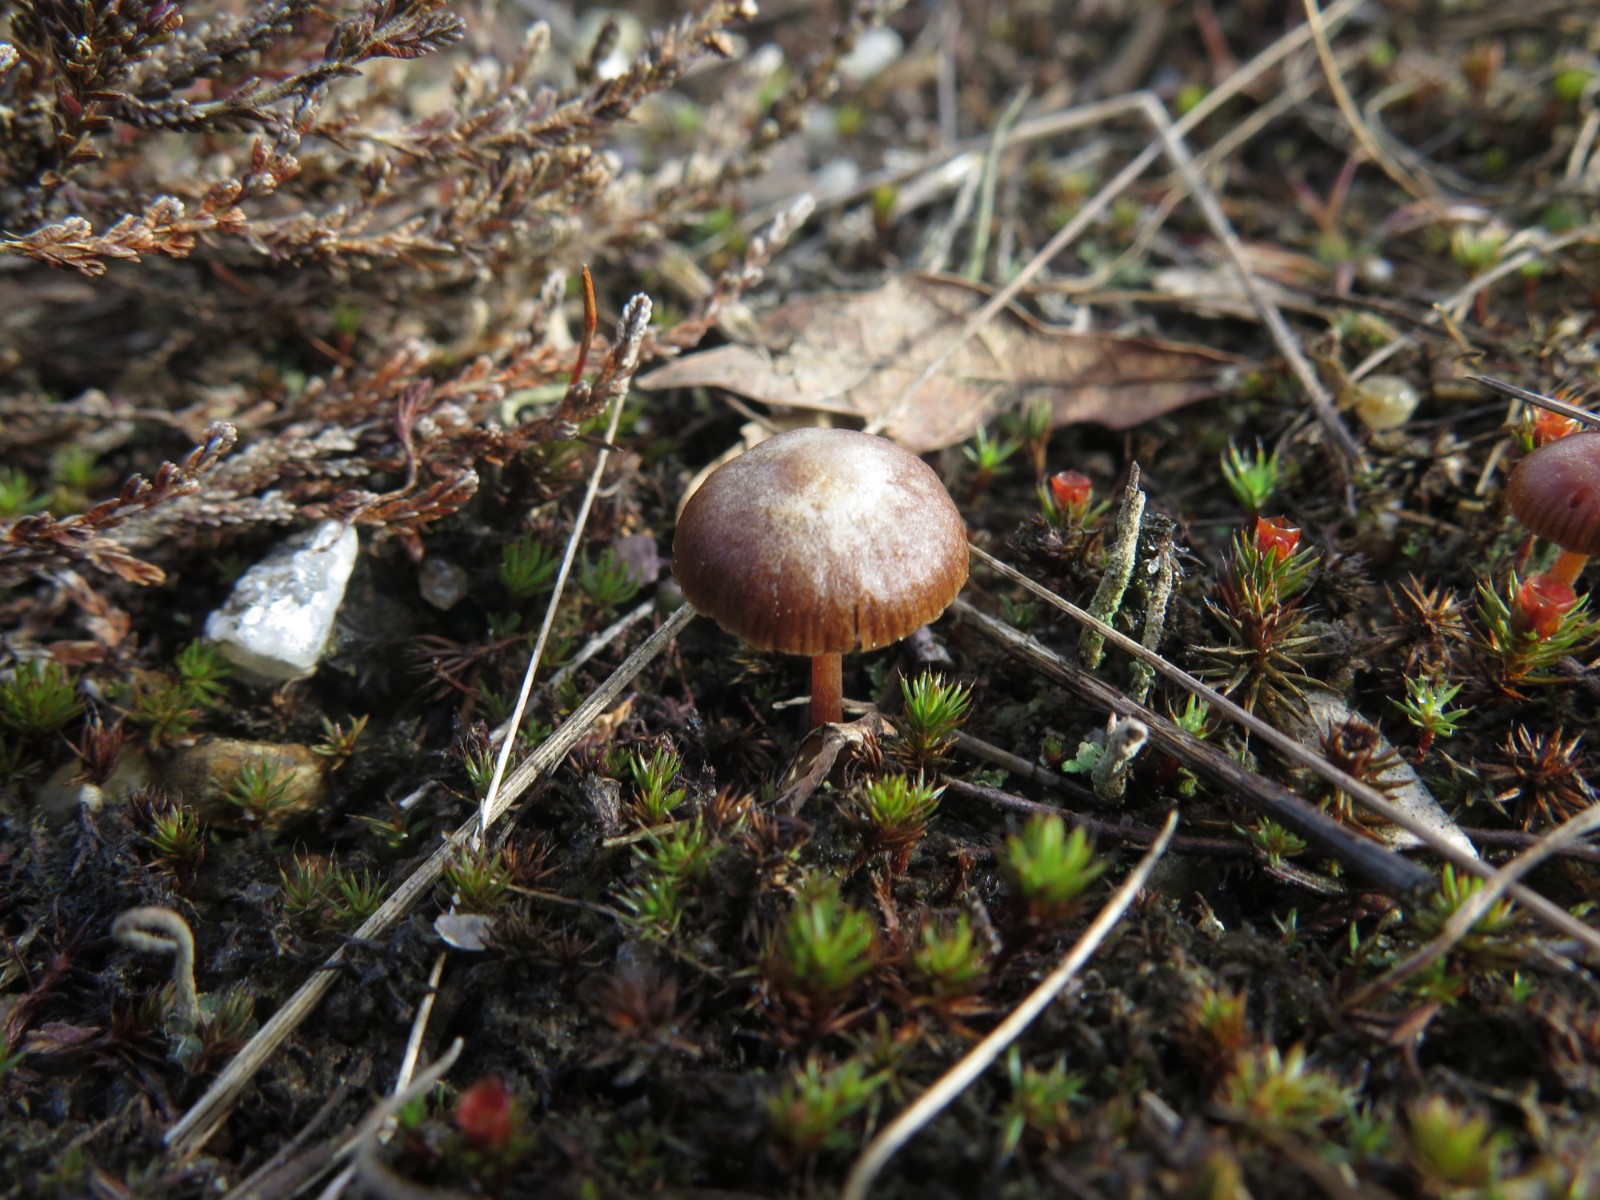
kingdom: Fungi
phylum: Basidiomycota
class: Agaricomycetes
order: Agaricales
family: Tubariaceae
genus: Tubaria
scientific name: Tubaria furfuracea
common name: kliddet fnughat
